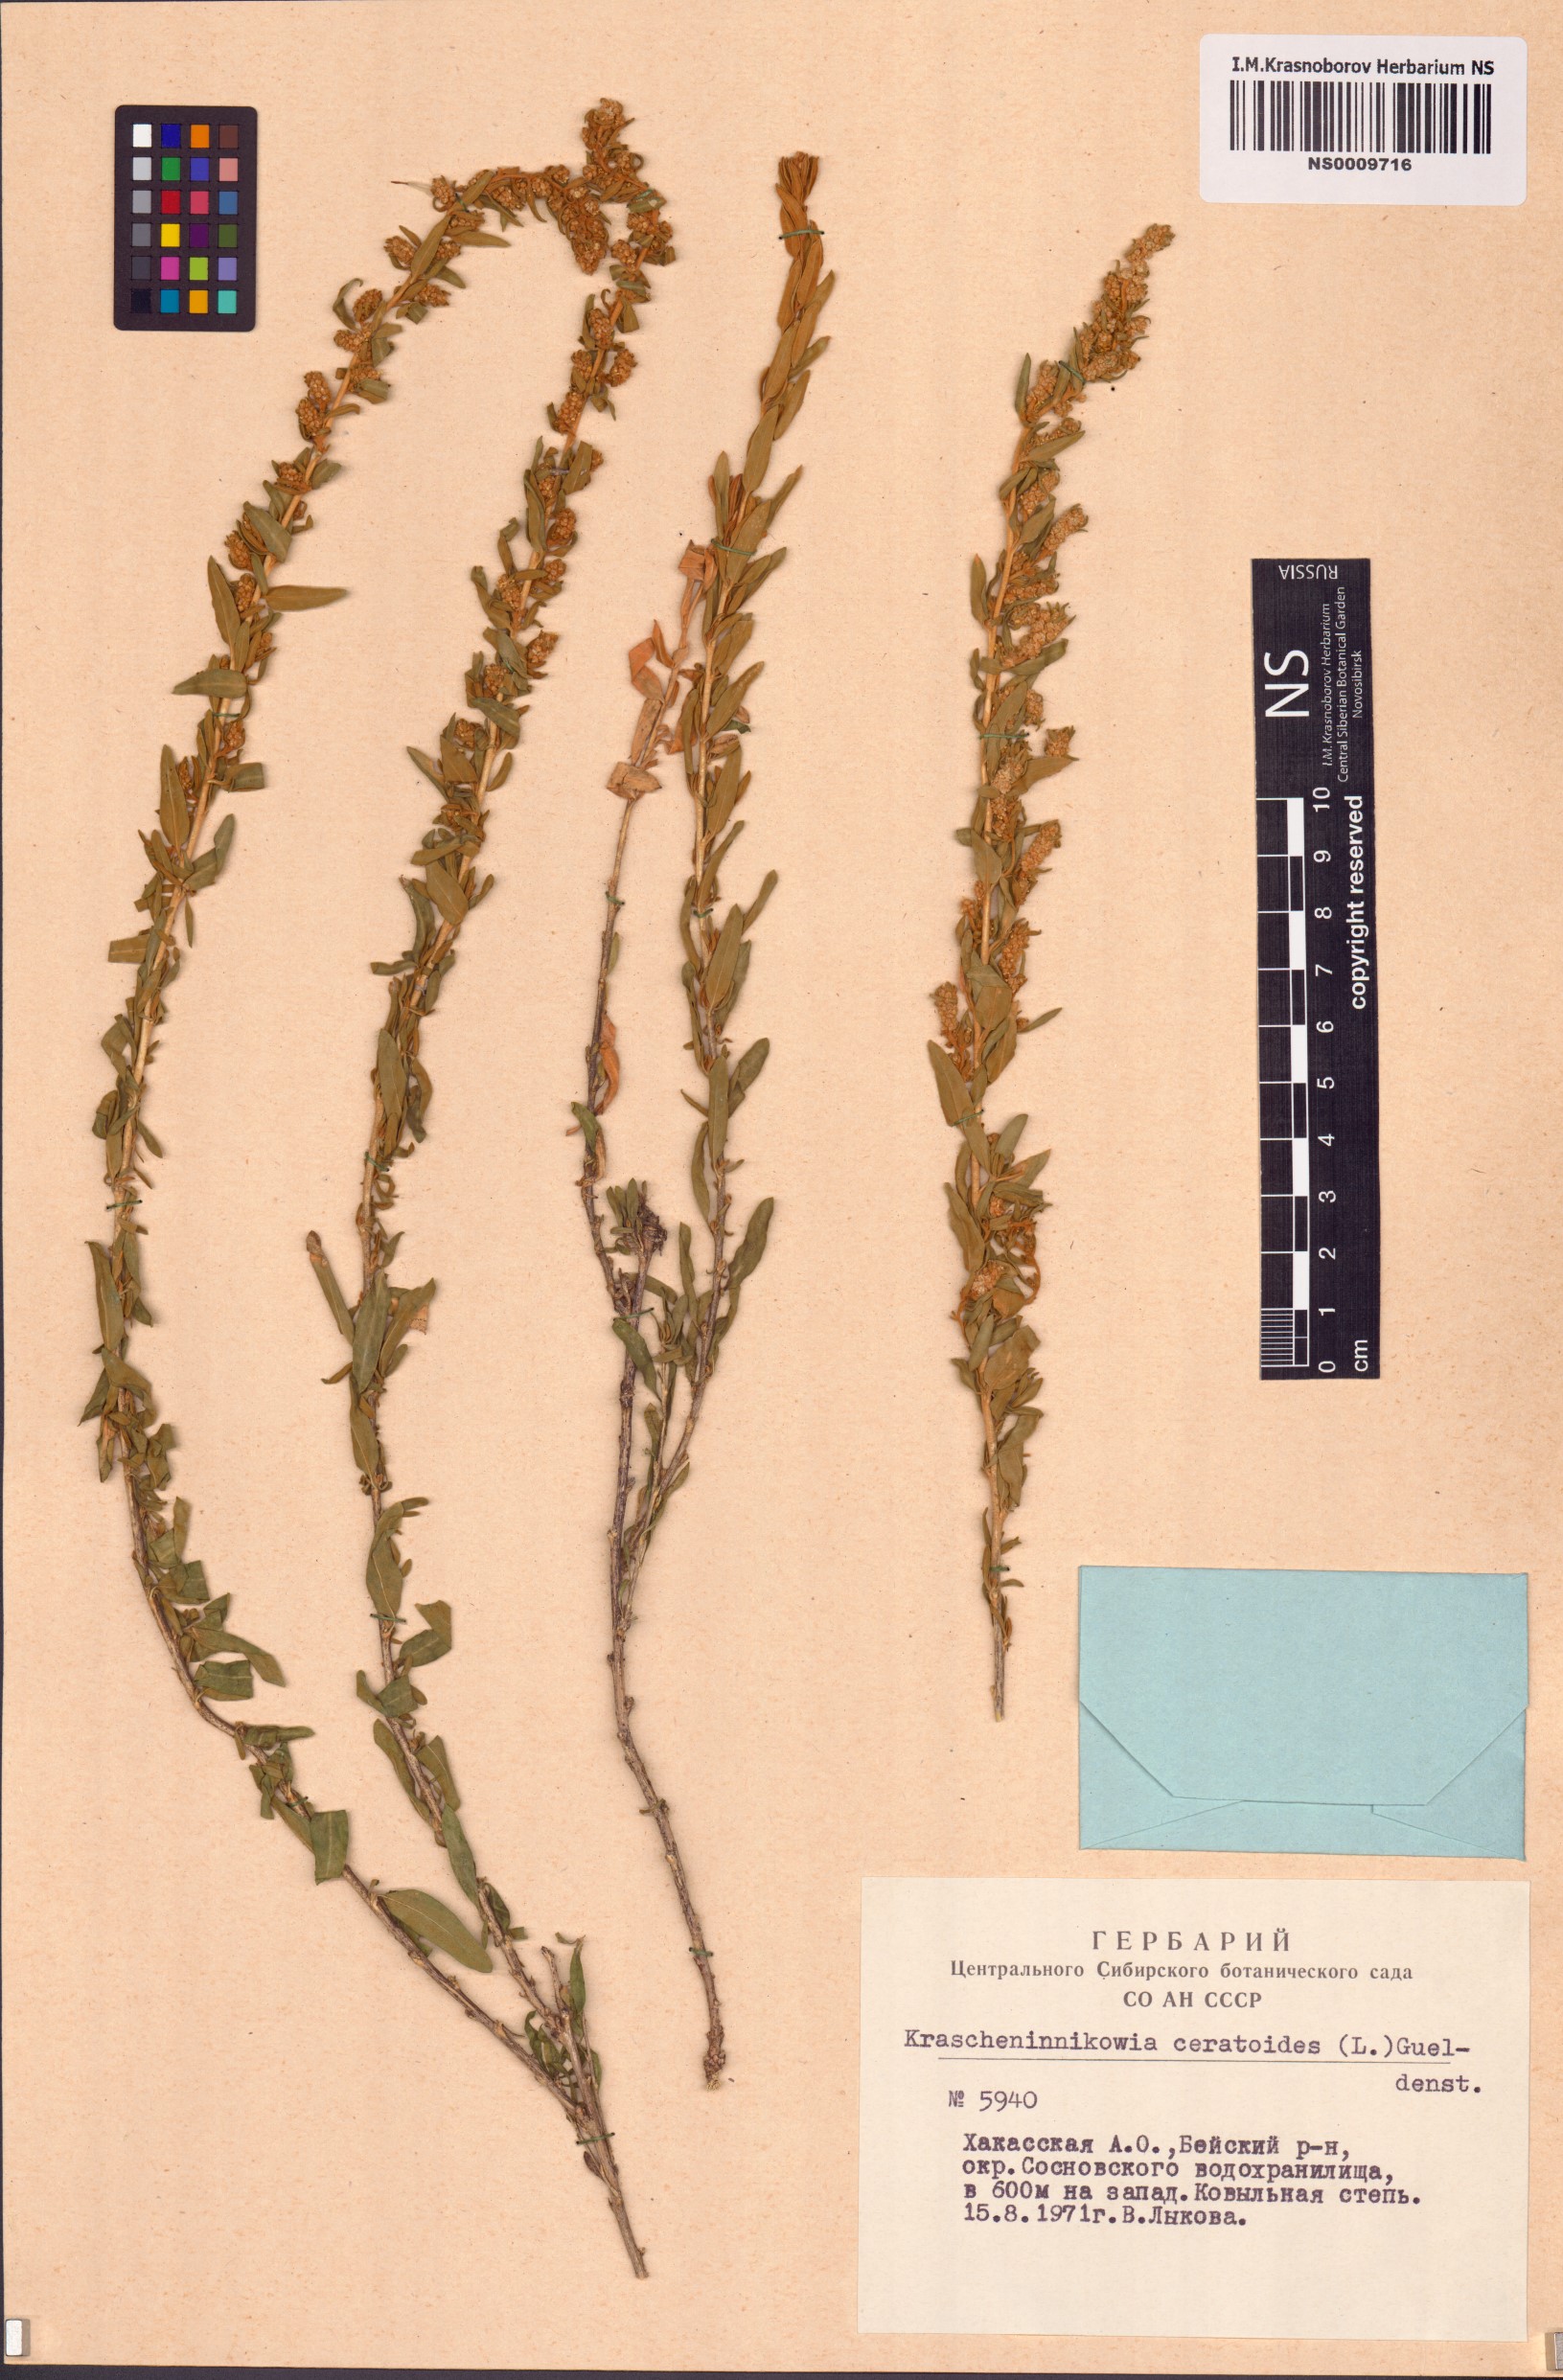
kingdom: Plantae
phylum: Tracheophyta
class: Magnoliopsida
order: Caryophyllales
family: Amaranthaceae
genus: Krascheninnikovia
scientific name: Krascheninnikovia ceratoides
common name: Pamirian winterfat
